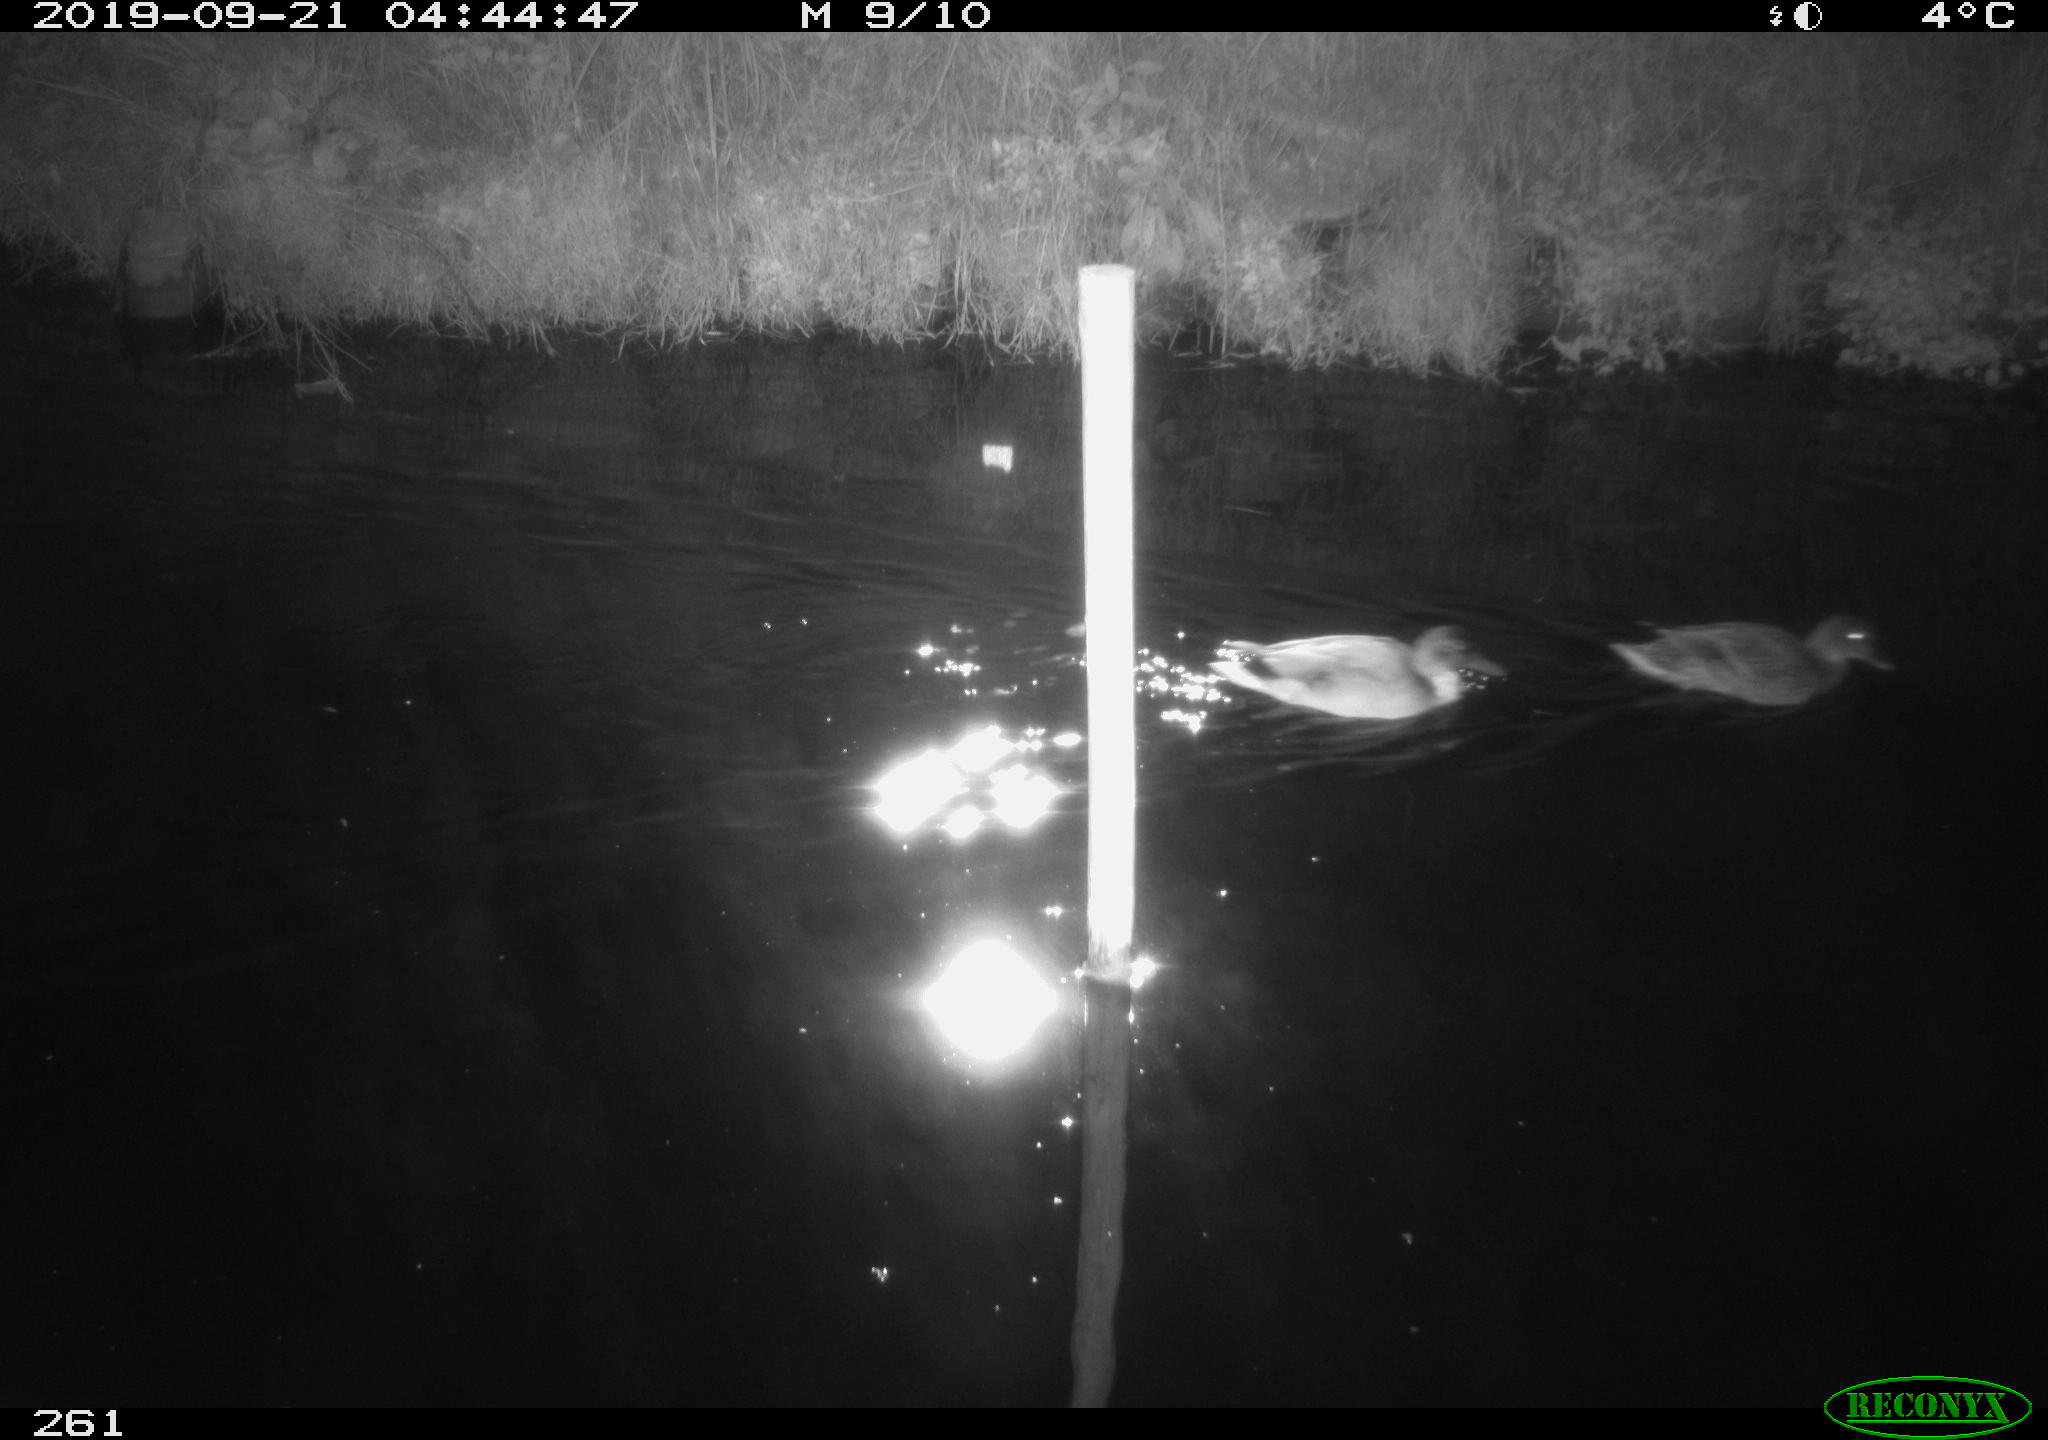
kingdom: Animalia
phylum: Chordata
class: Aves
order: Anseriformes
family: Anatidae
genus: Anas
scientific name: Anas platyrhynchos
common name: Mallard
